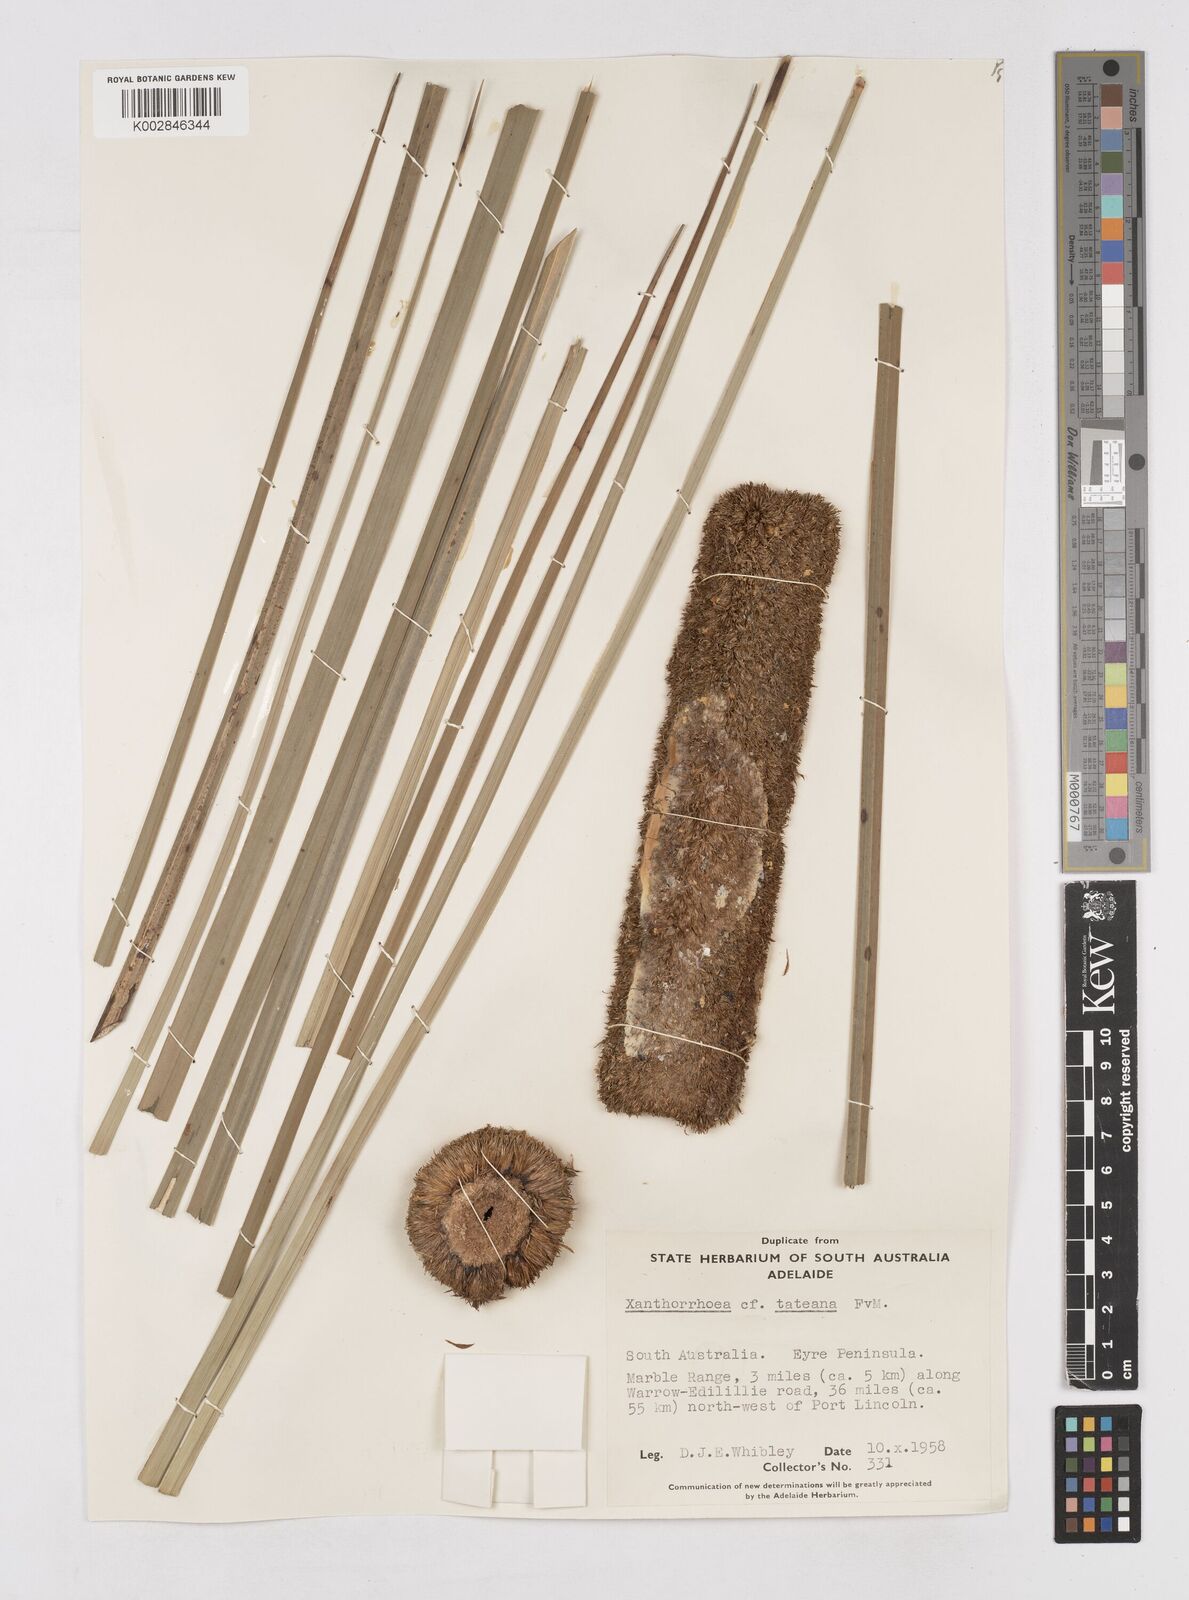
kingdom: Plantae
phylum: Tracheophyta
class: Liliopsida
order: Asparagales
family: Asphodelaceae
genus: Xanthorrhoea
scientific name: Xanthorrhoea semiplana
